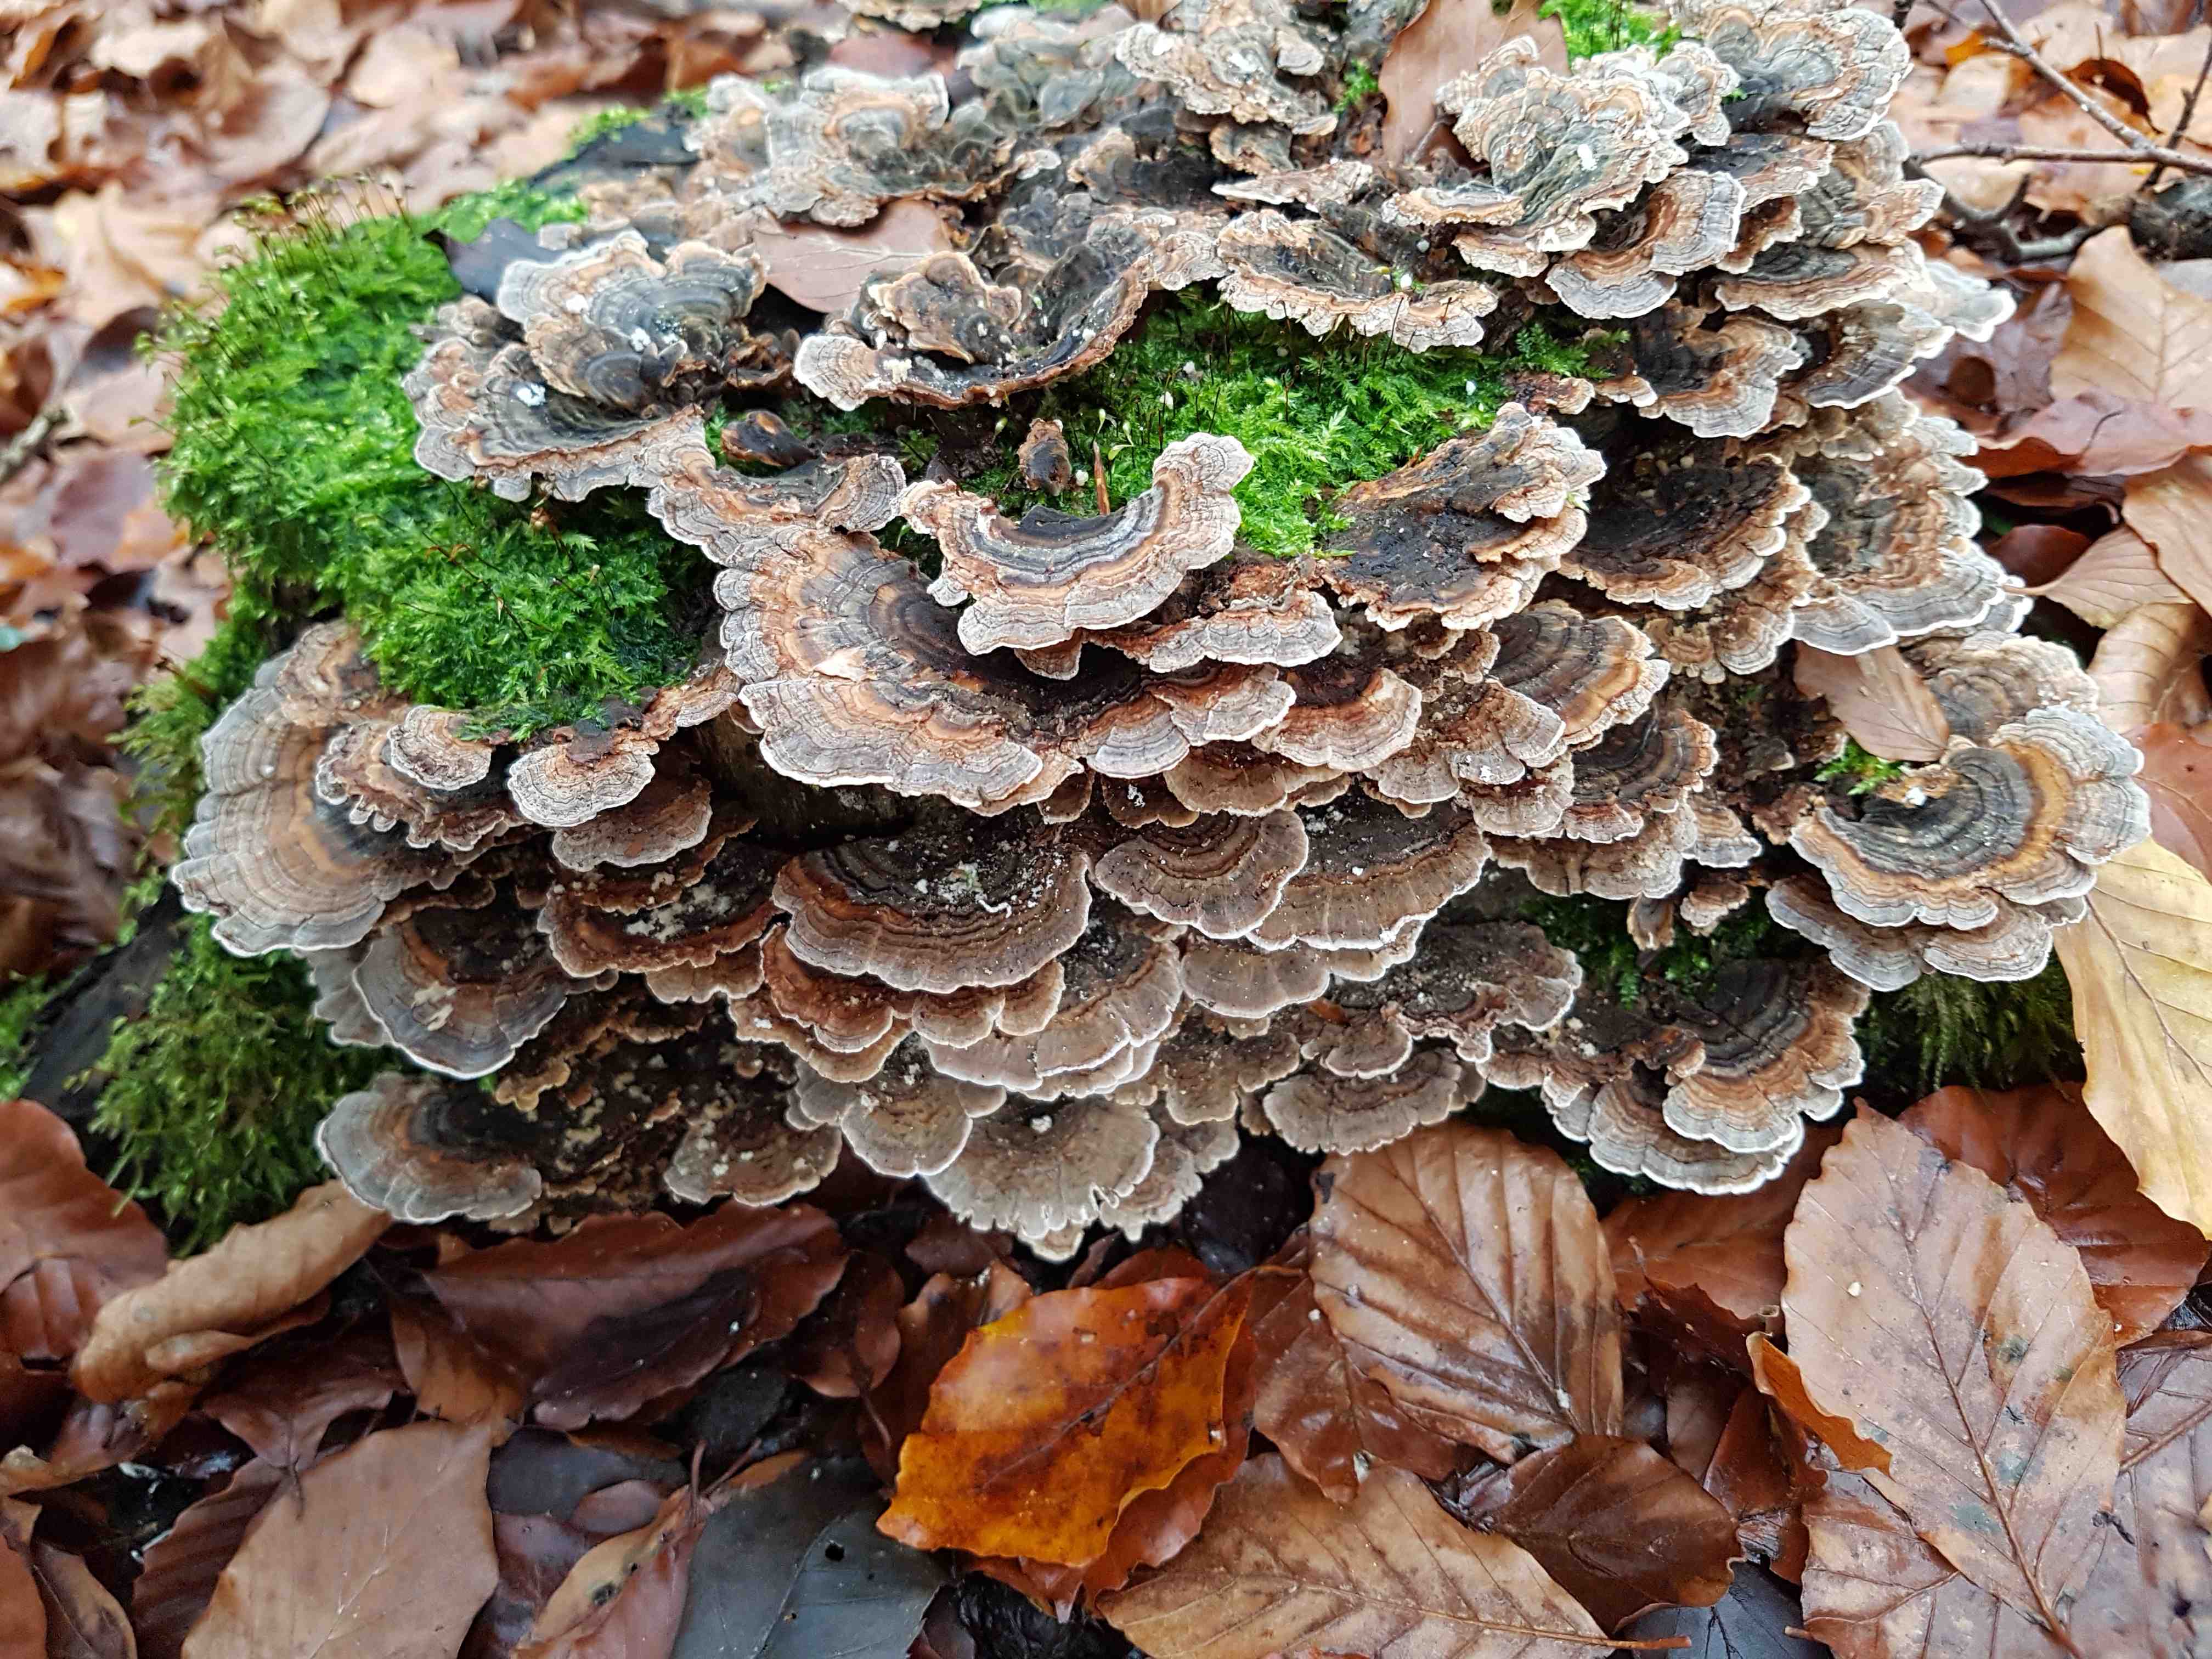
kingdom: Fungi
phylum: Basidiomycota
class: Agaricomycetes
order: Polyporales
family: Polyporaceae
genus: Trametes
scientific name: Trametes versicolor
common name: broget læderporesvamp
